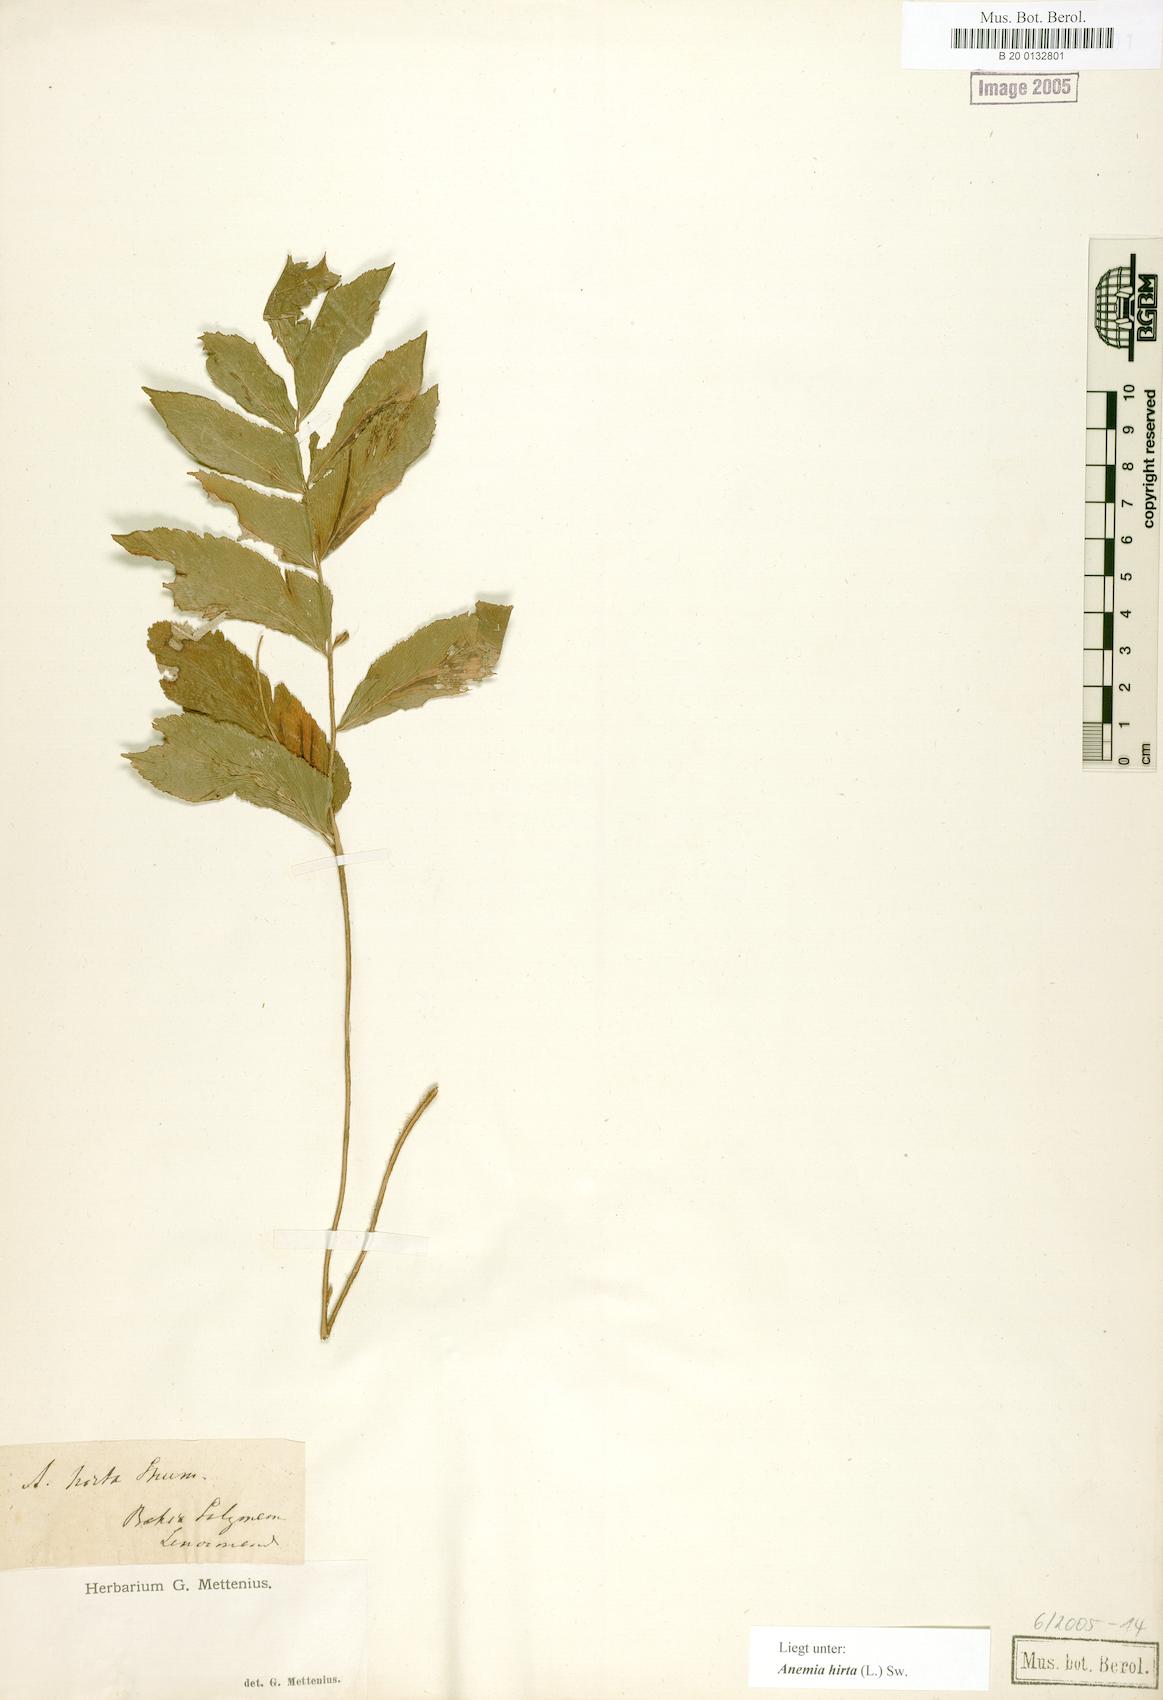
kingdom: Plantae
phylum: Tracheophyta
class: Polypodiopsida
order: Schizaeales
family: Anemiaceae
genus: Anemia
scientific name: Anemia hirta
